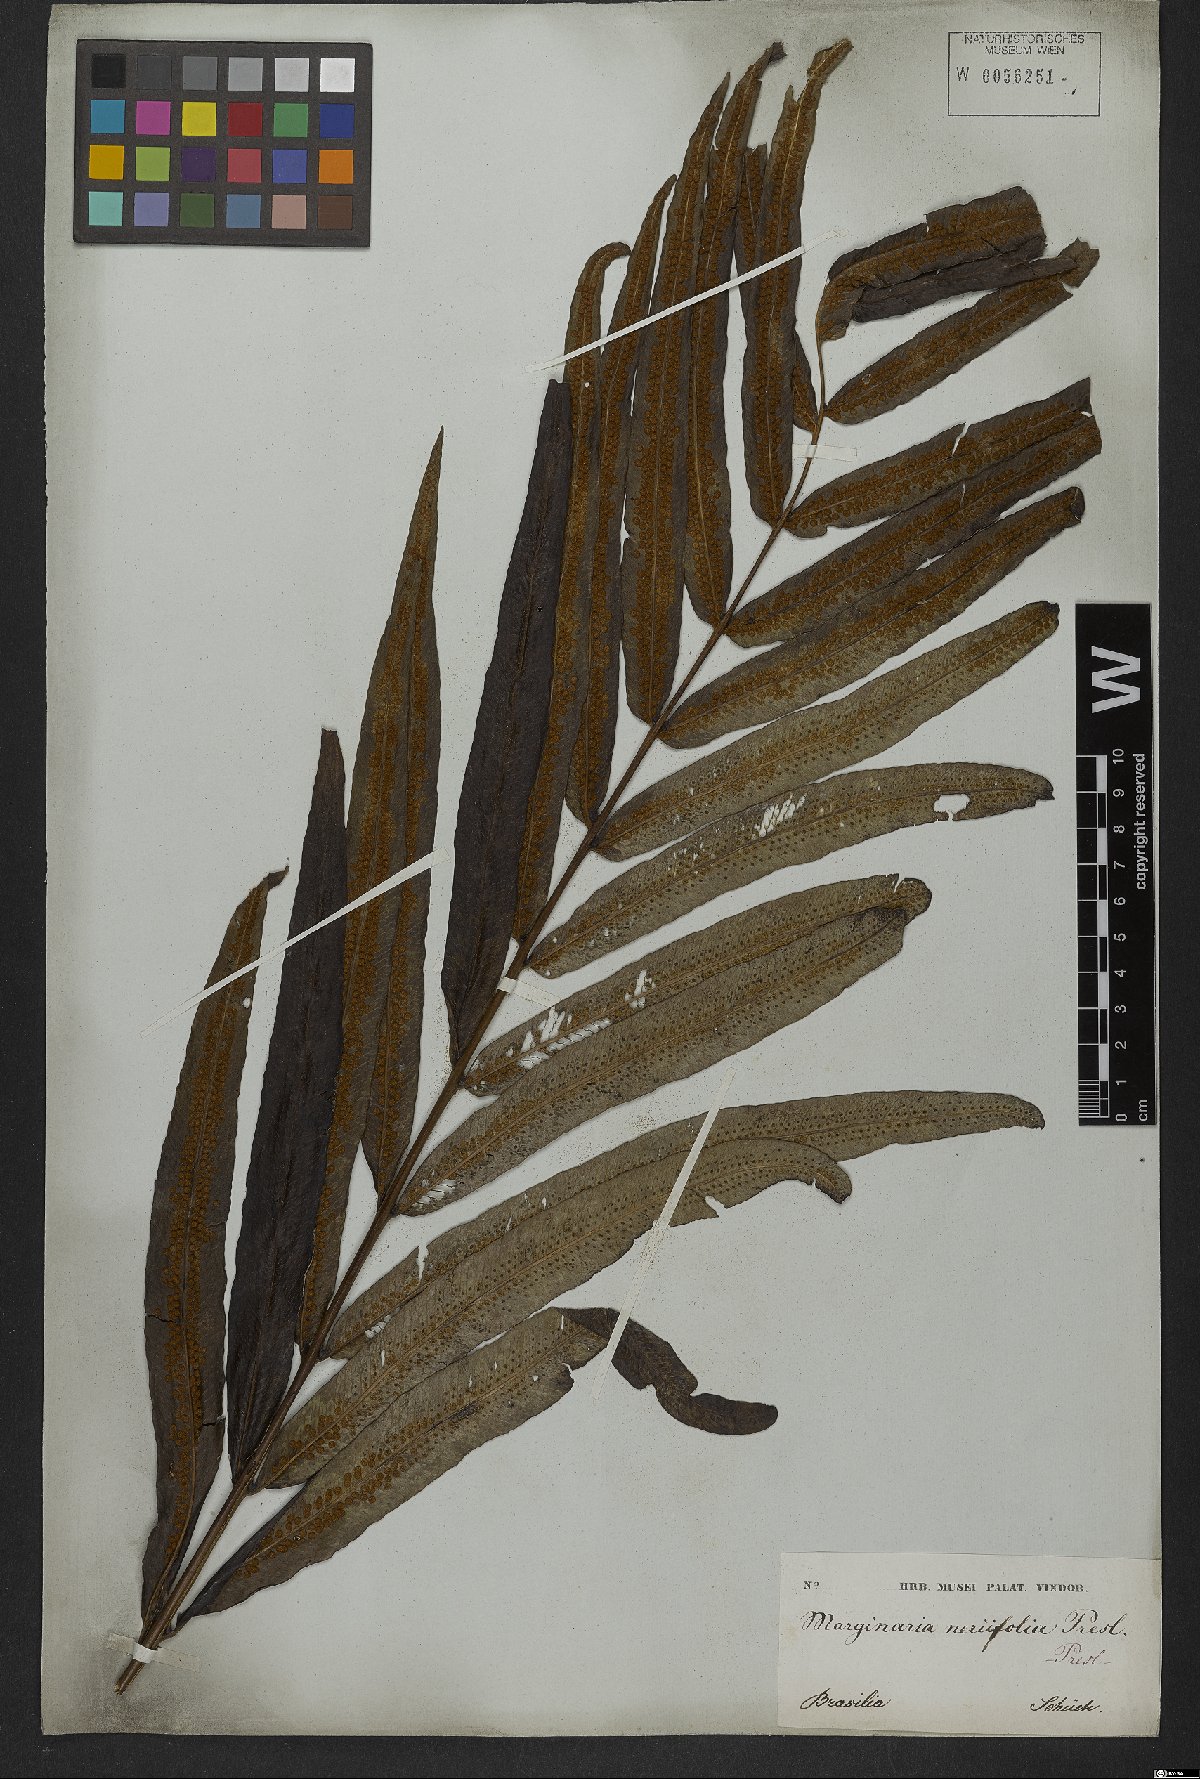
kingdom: Plantae
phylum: Tracheophyta
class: Polypodiopsida
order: Polypodiales
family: Polypodiaceae
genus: Serpocaulon
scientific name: Serpocaulon triseriale
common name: Angle-vein fern
